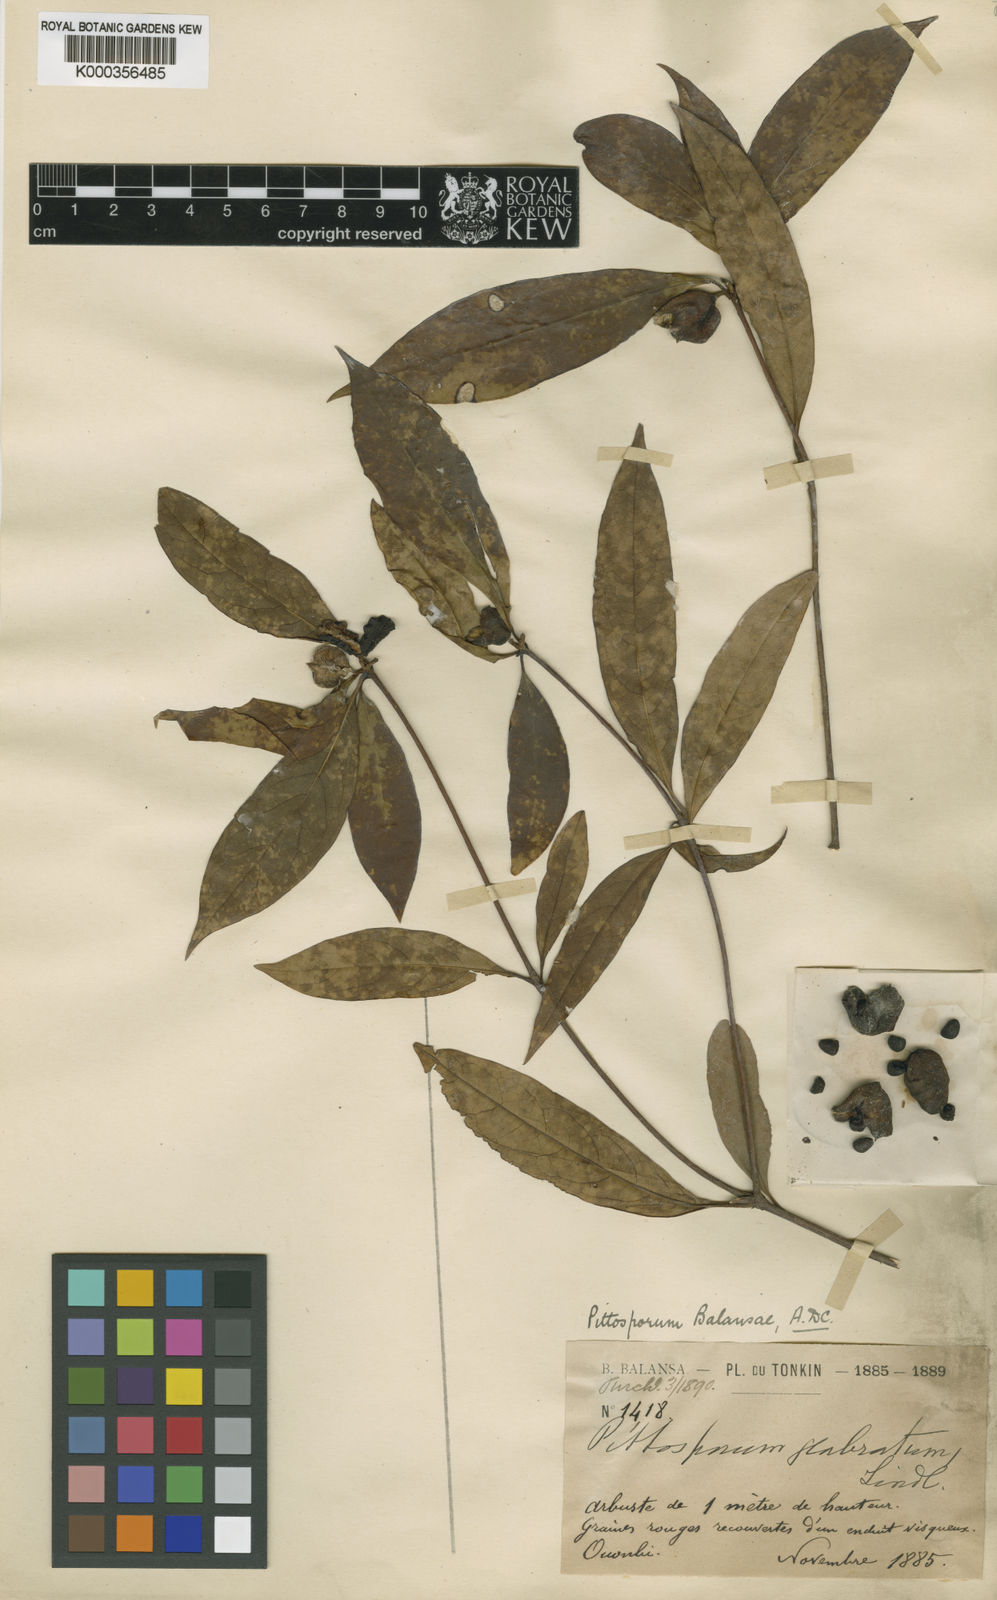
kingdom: Plantae
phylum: Tracheophyta
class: Magnoliopsida
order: Apiales
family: Pittosporaceae
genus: Pittosporum
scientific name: Pittosporum
